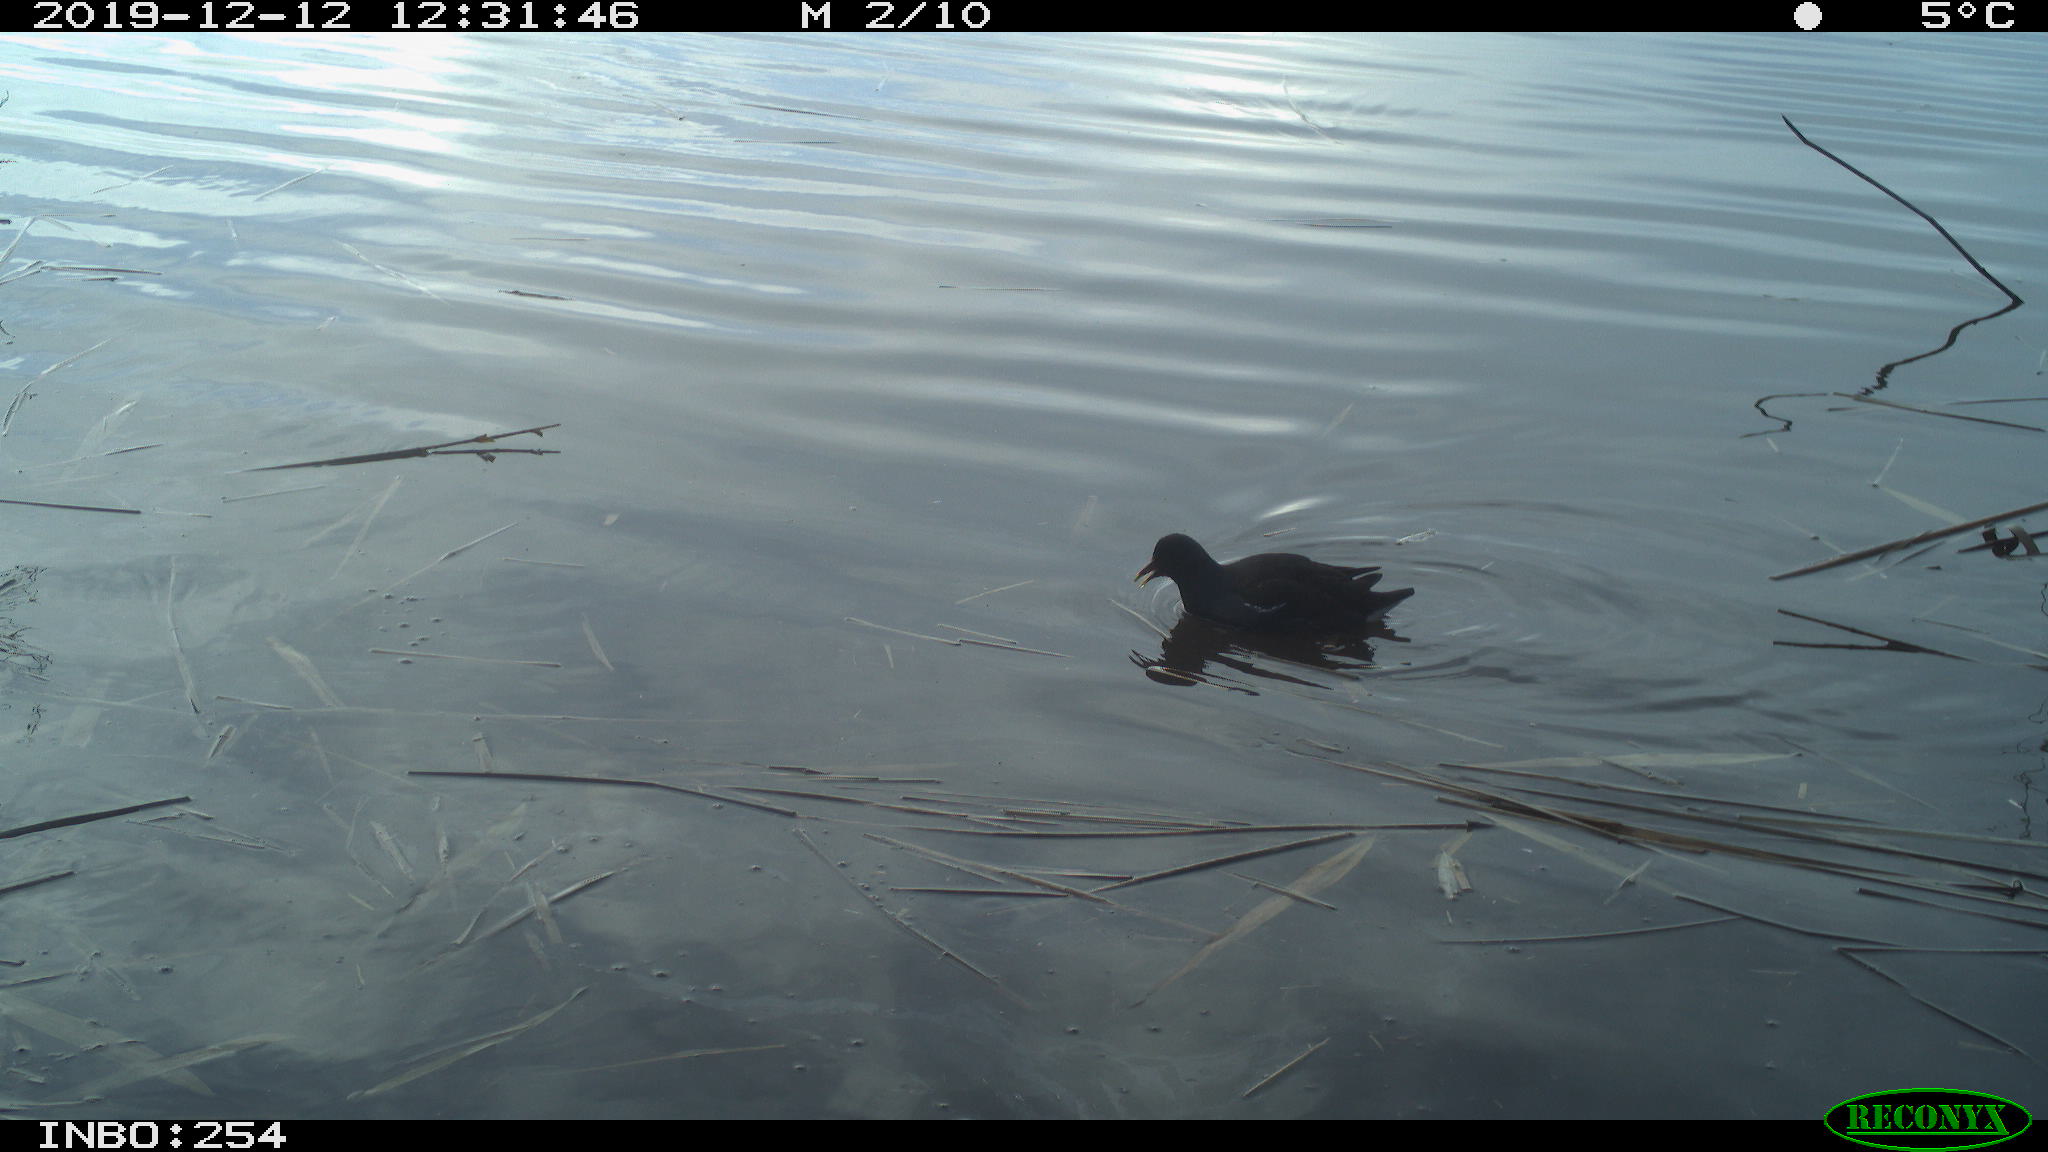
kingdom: Animalia
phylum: Chordata
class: Aves
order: Gruiformes
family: Rallidae
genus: Gallinula
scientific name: Gallinula chloropus
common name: Common moorhen
